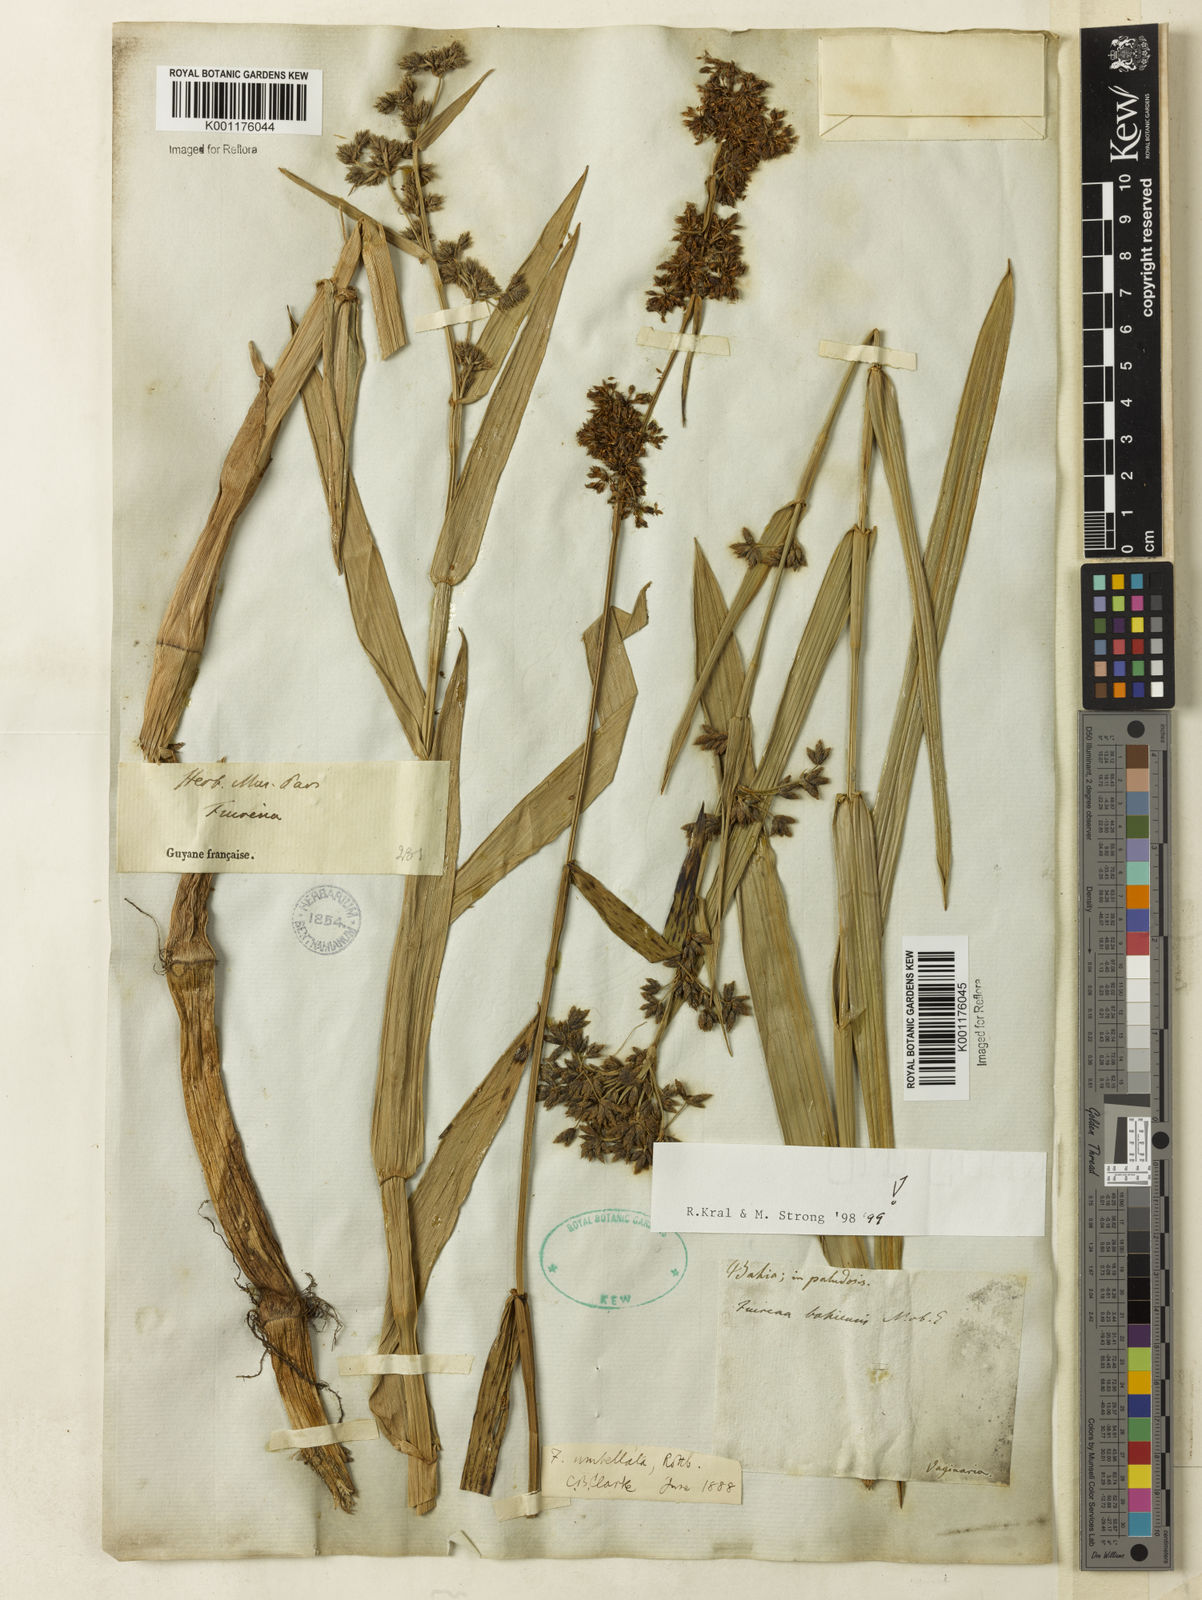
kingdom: Plantae
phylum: Tracheophyta
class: Liliopsida
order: Poales
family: Cyperaceae
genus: Fuirena
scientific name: Fuirena umbellata
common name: Yefen
